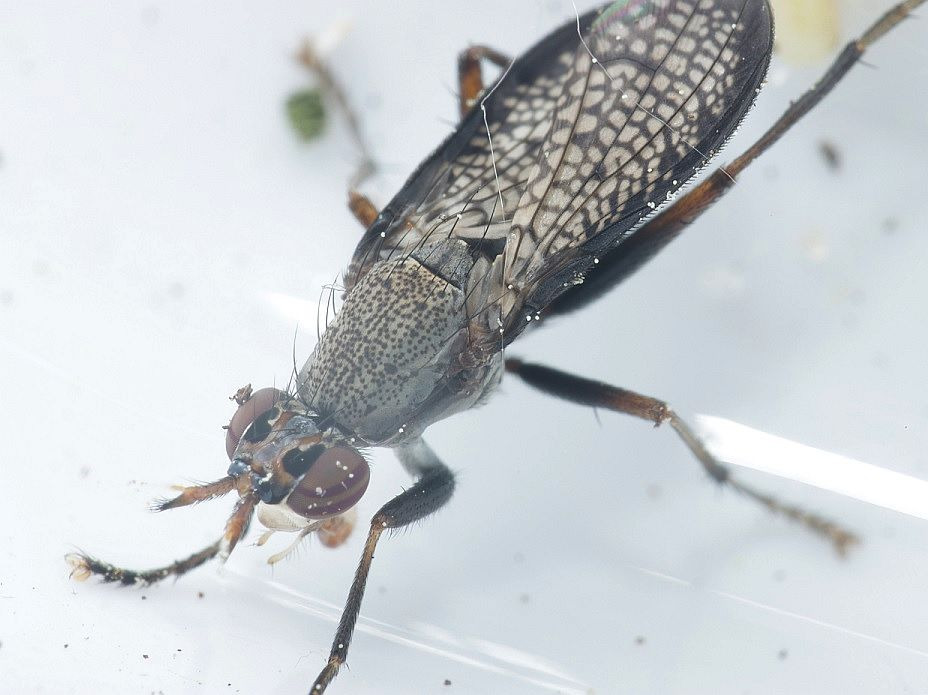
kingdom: Animalia
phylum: Arthropoda
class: Insecta
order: Diptera
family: Sciomyzidae
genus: Coremacera
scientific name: Coremacera marginata
